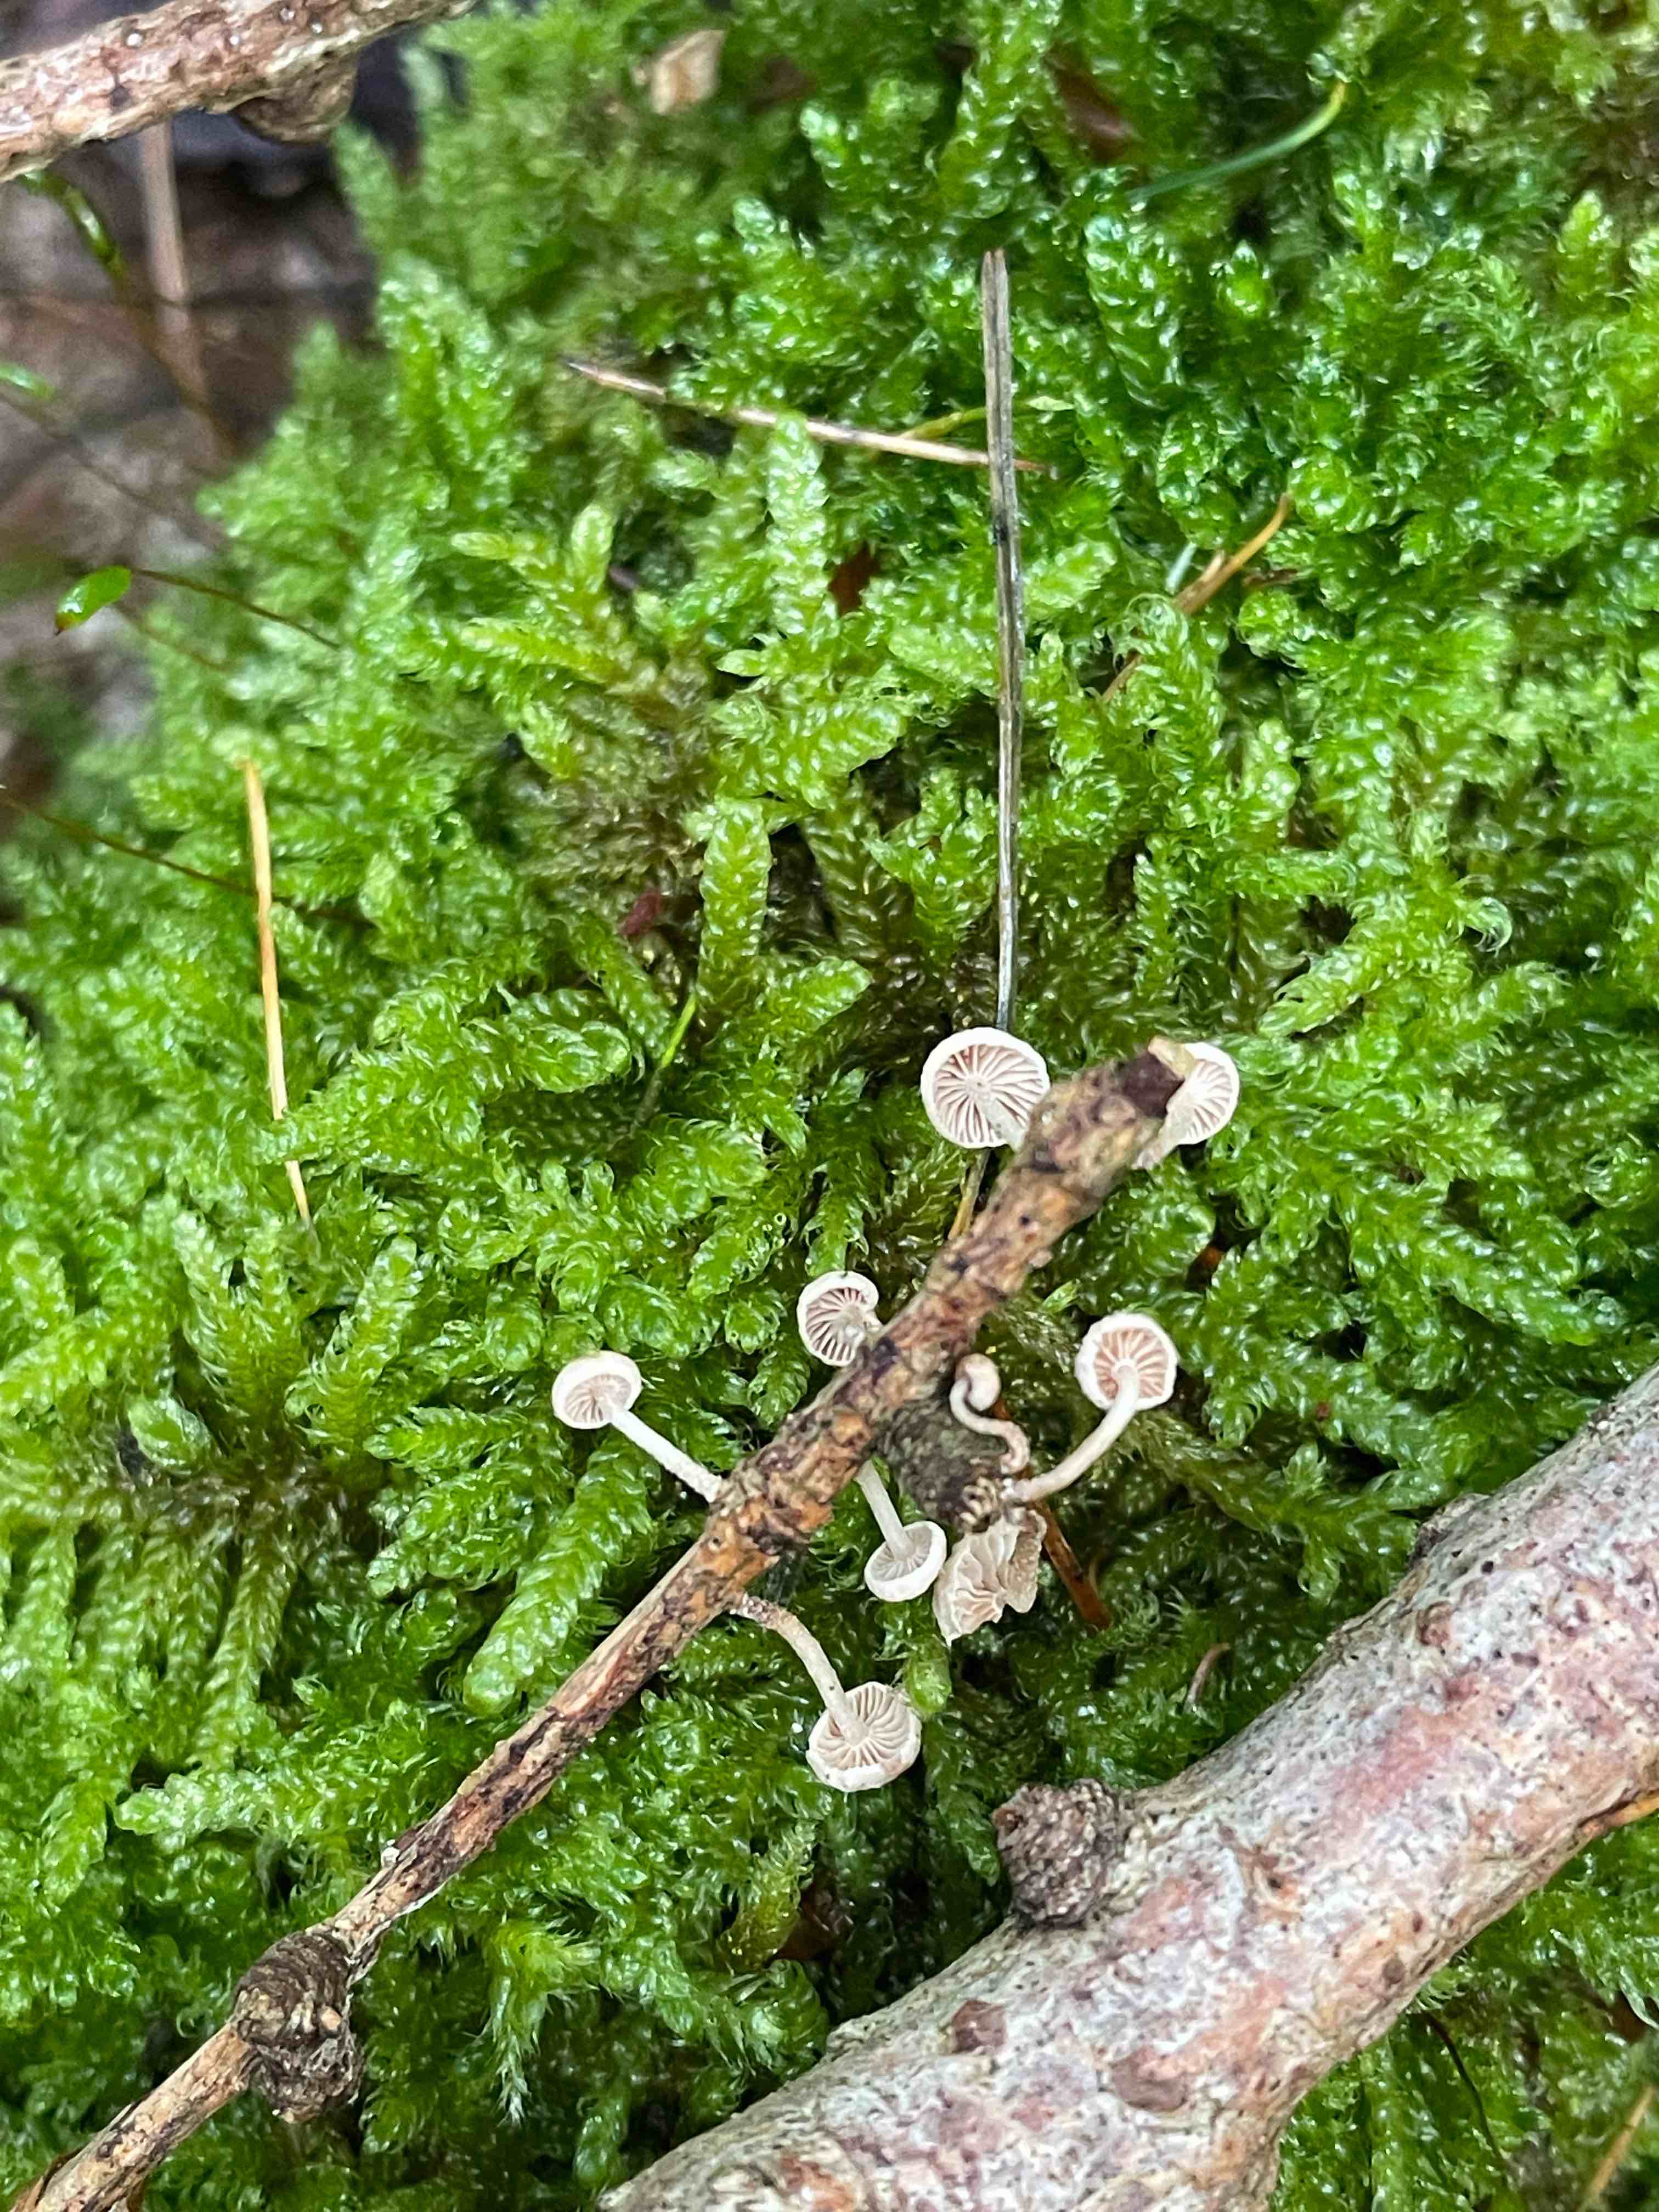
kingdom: Fungi
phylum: Basidiomycota
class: Agaricomycetes
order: Agaricales
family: Omphalotaceae
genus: Collybiopsis
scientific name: Collybiopsis ramealis
